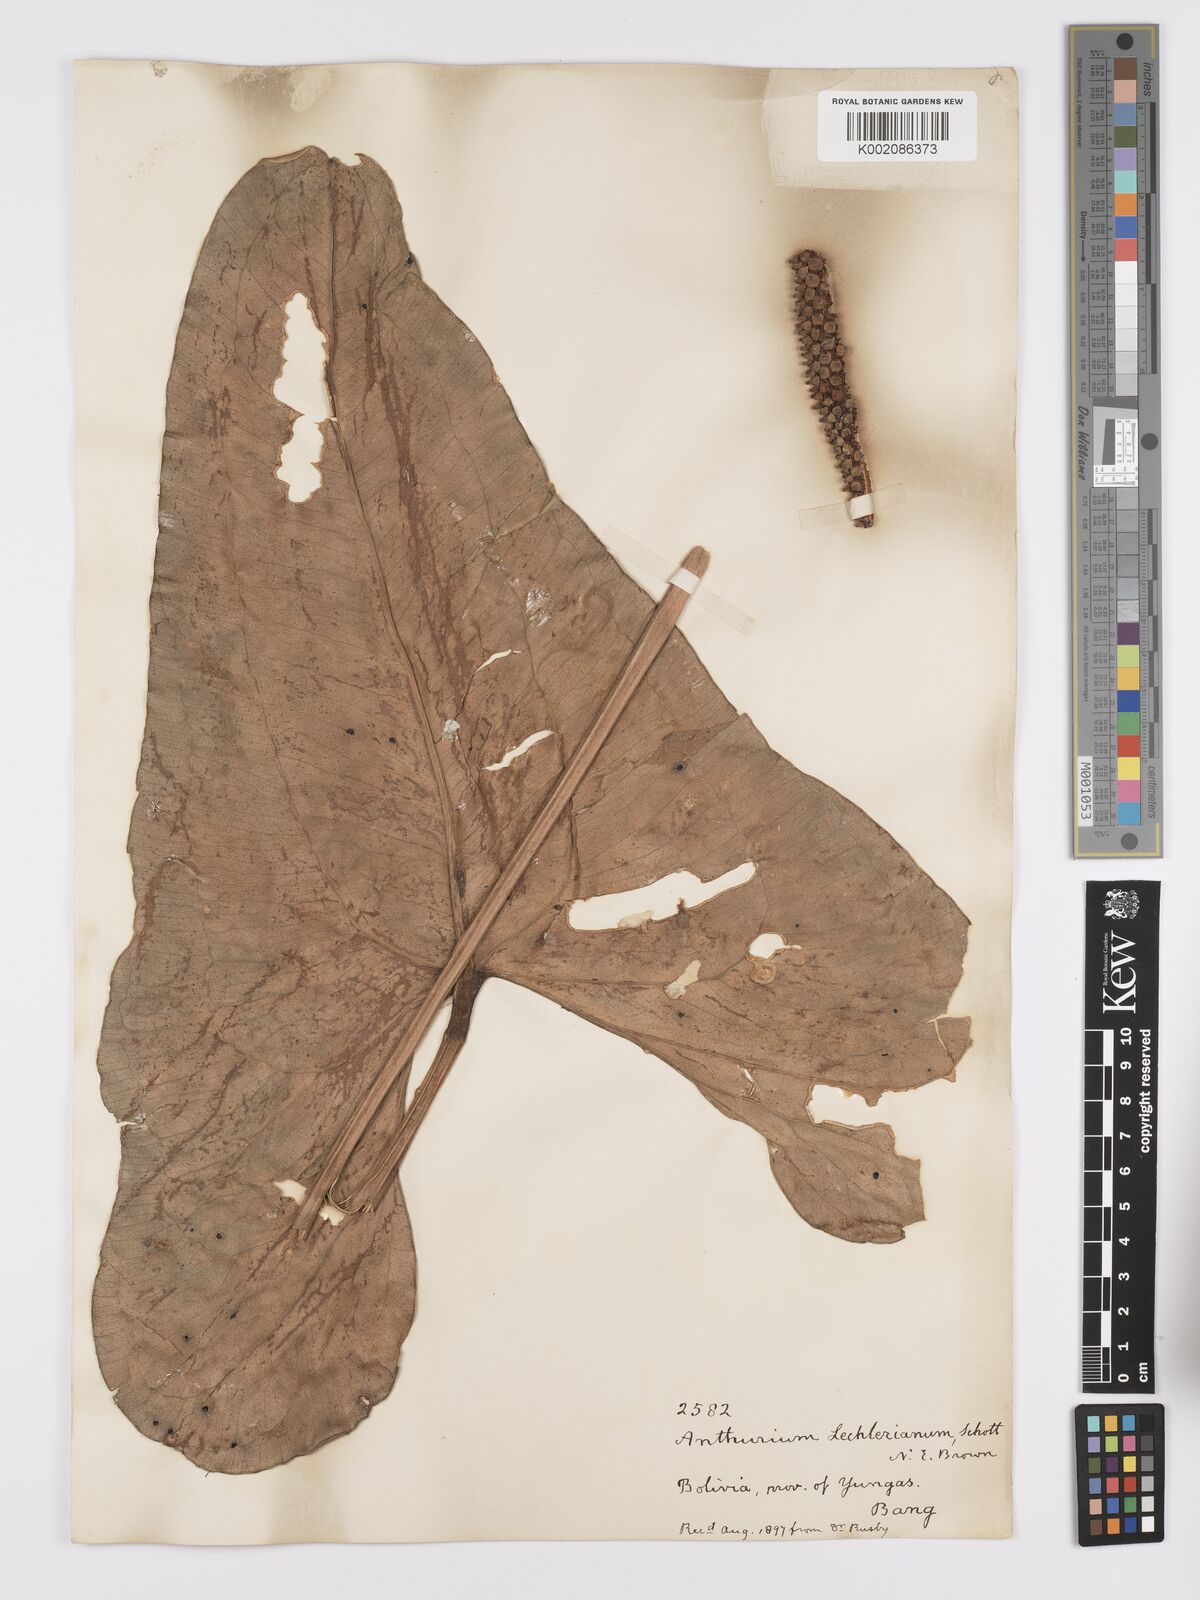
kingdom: Plantae
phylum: Tracheophyta
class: Liliopsida
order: Alismatales
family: Araceae
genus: Anthurium
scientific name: Anthurium lechlerianum
